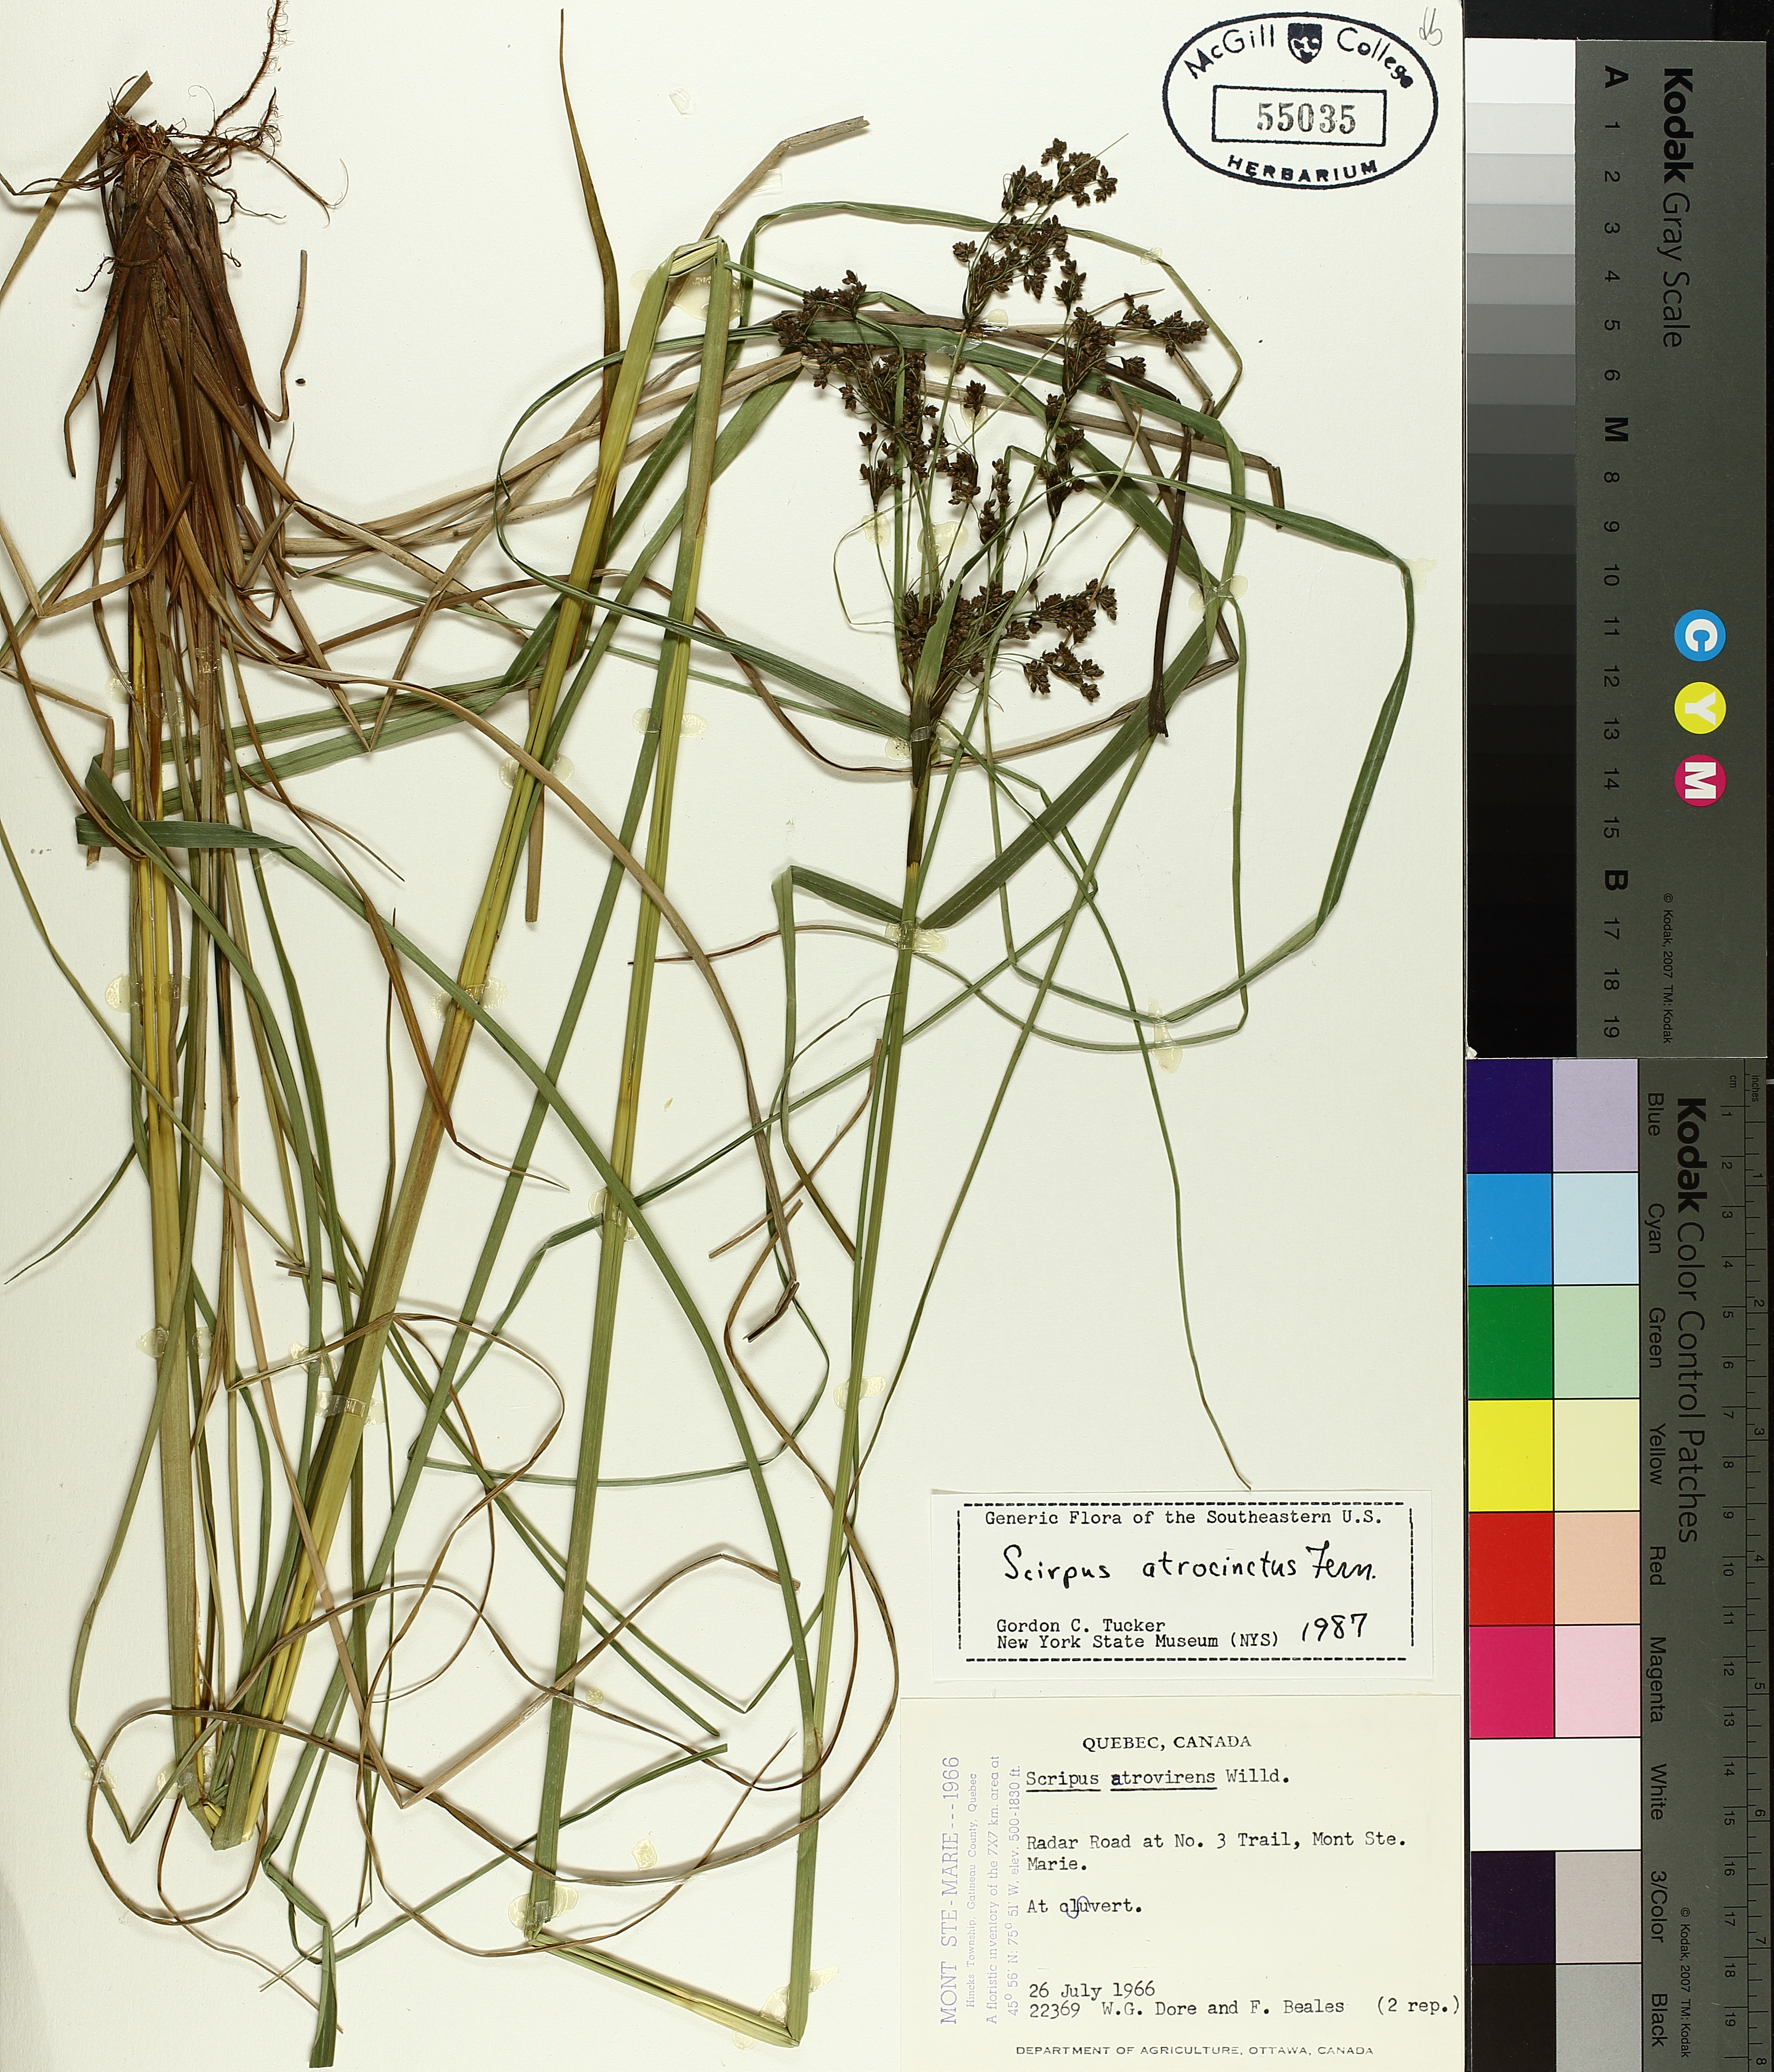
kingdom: Plantae
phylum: Tracheophyta
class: Liliopsida
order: Poales
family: Cyperaceae
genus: Scirpus
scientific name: Scirpus atrocinctus
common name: Black-girdled bulrush
